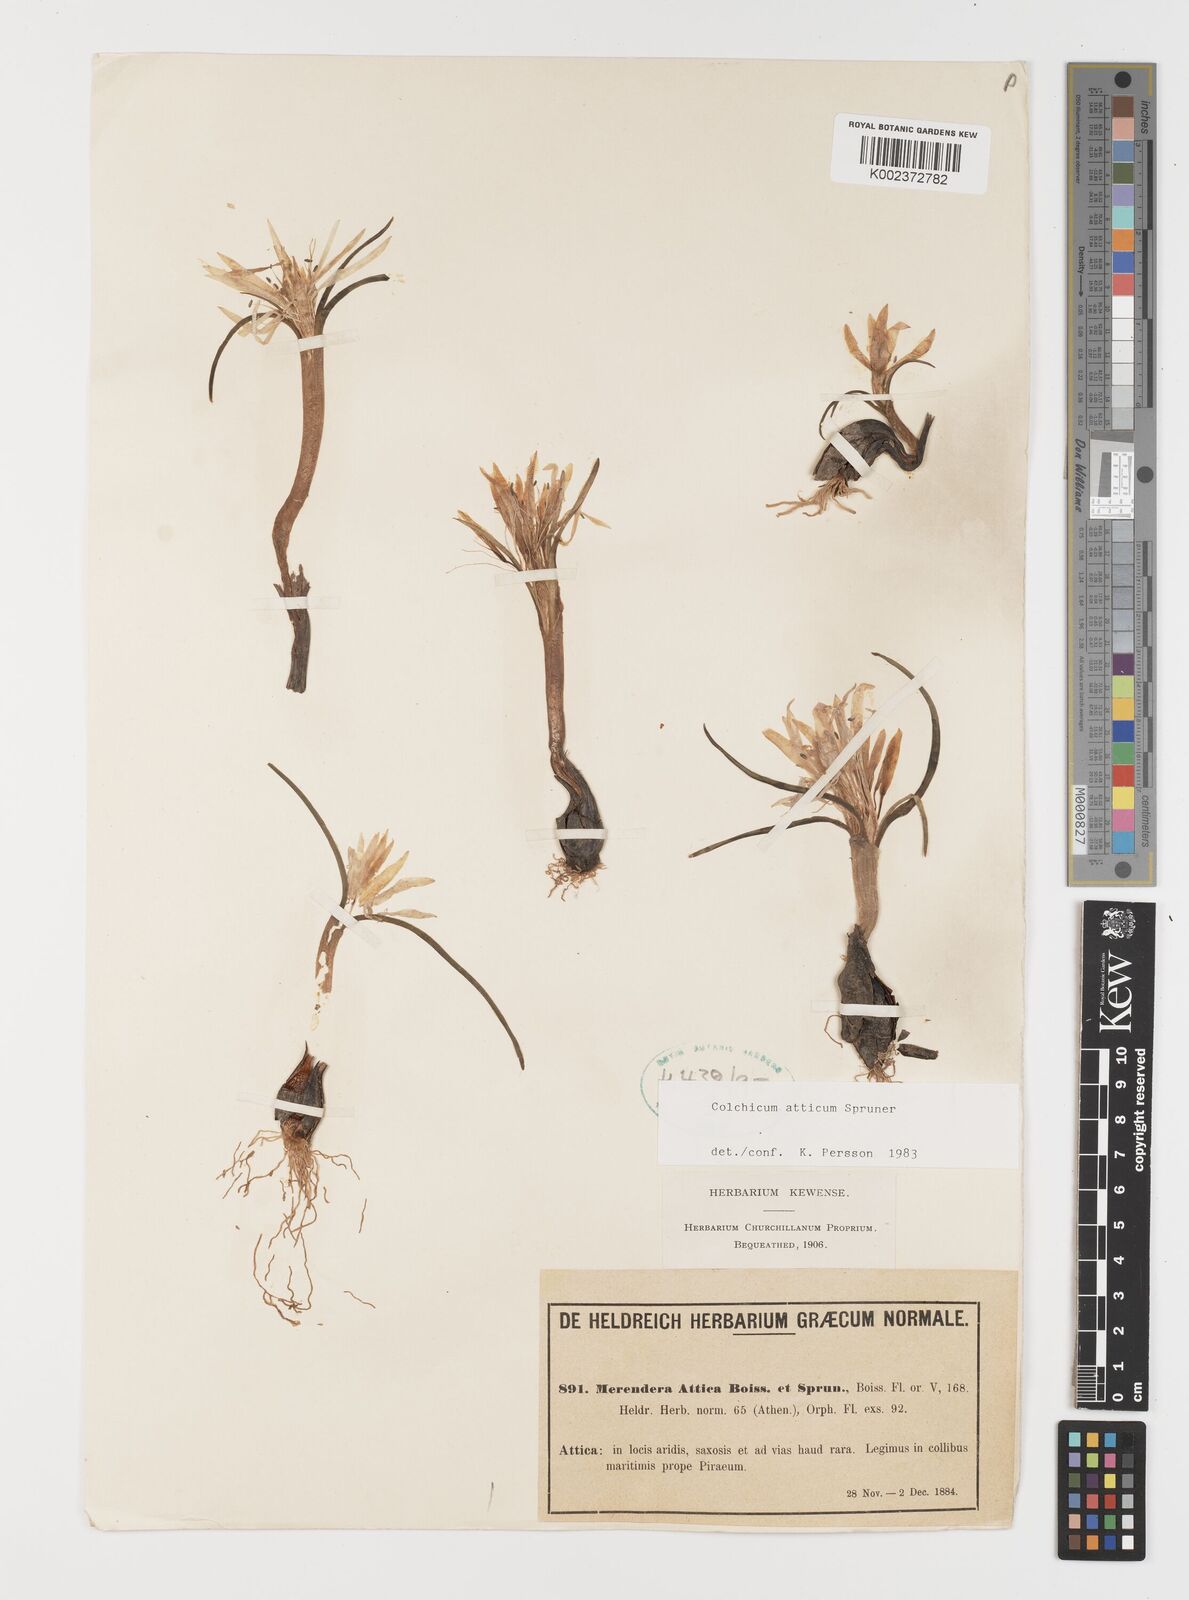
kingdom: Plantae
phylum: Tracheophyta
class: Liliopsida
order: Liliales
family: Colchicaceae
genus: Colchicum
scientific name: Colchicum atticum
